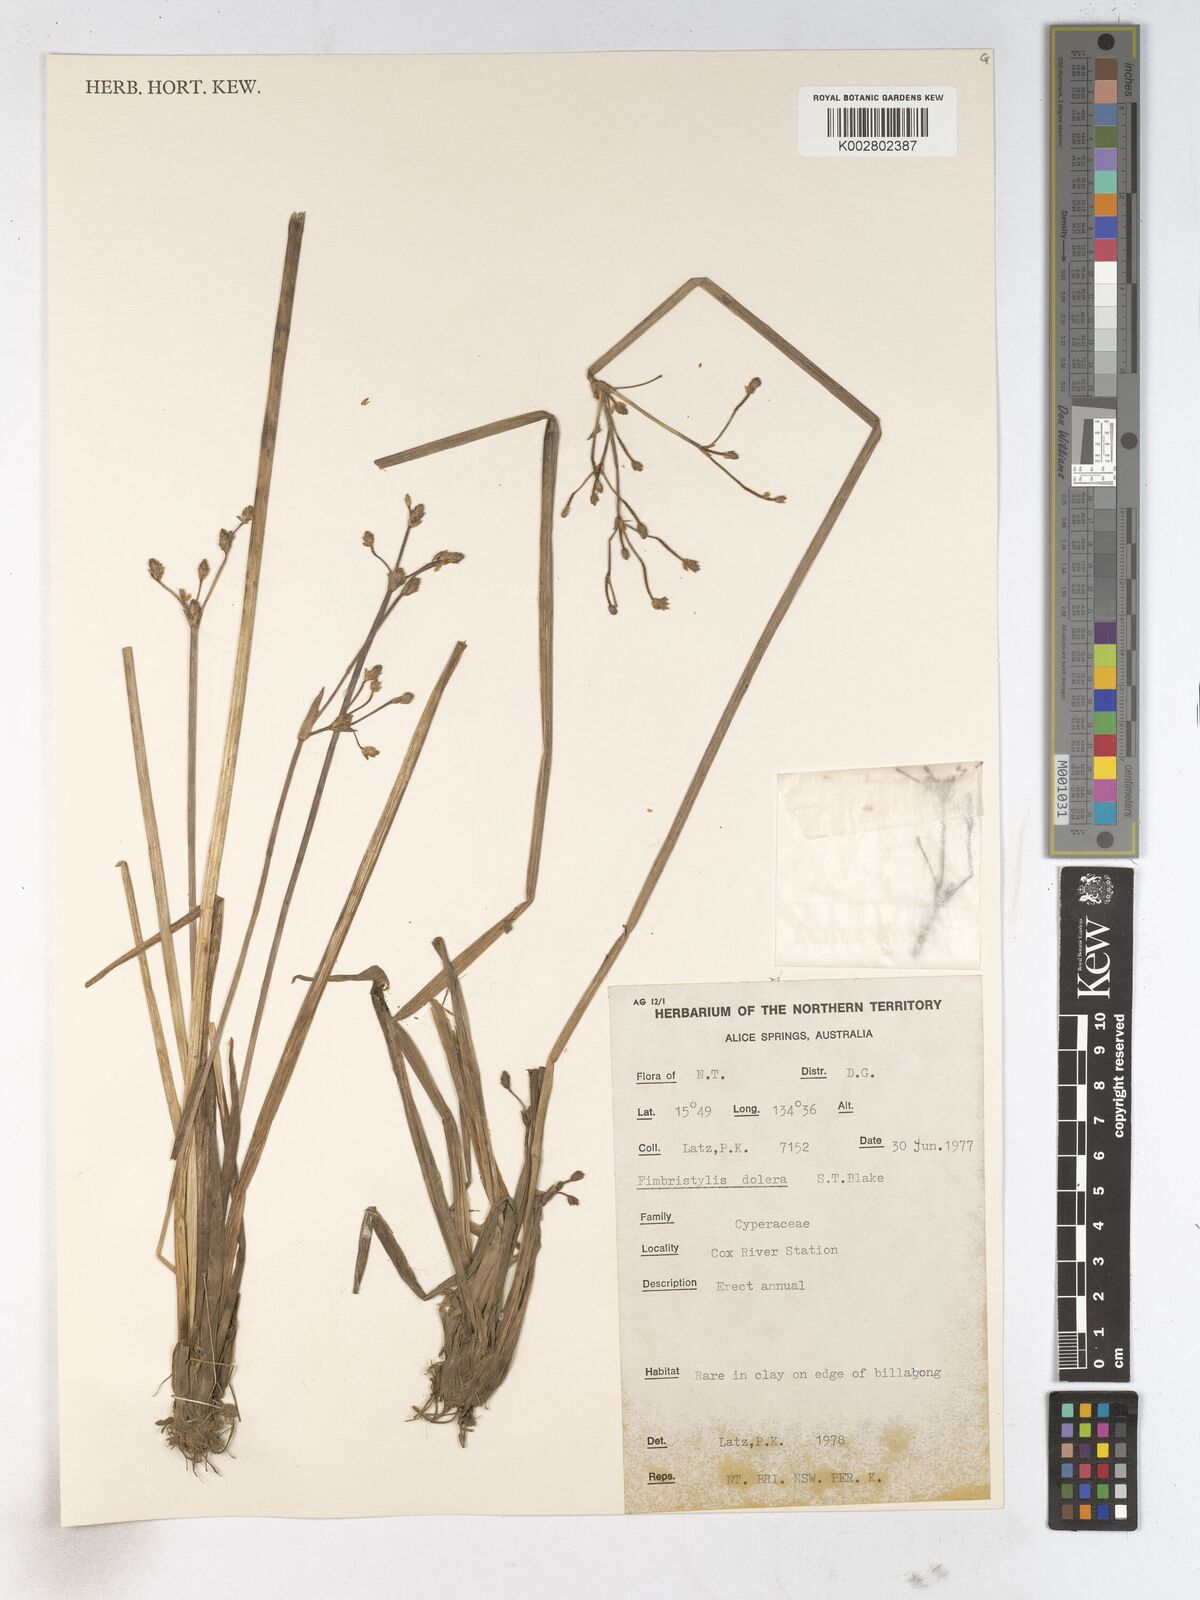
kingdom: Plantae
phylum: Tracheophyta
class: Liliopsida
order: Poales
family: Cyperaceae
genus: Fimbristylis
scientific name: Fimbristylis dolera
